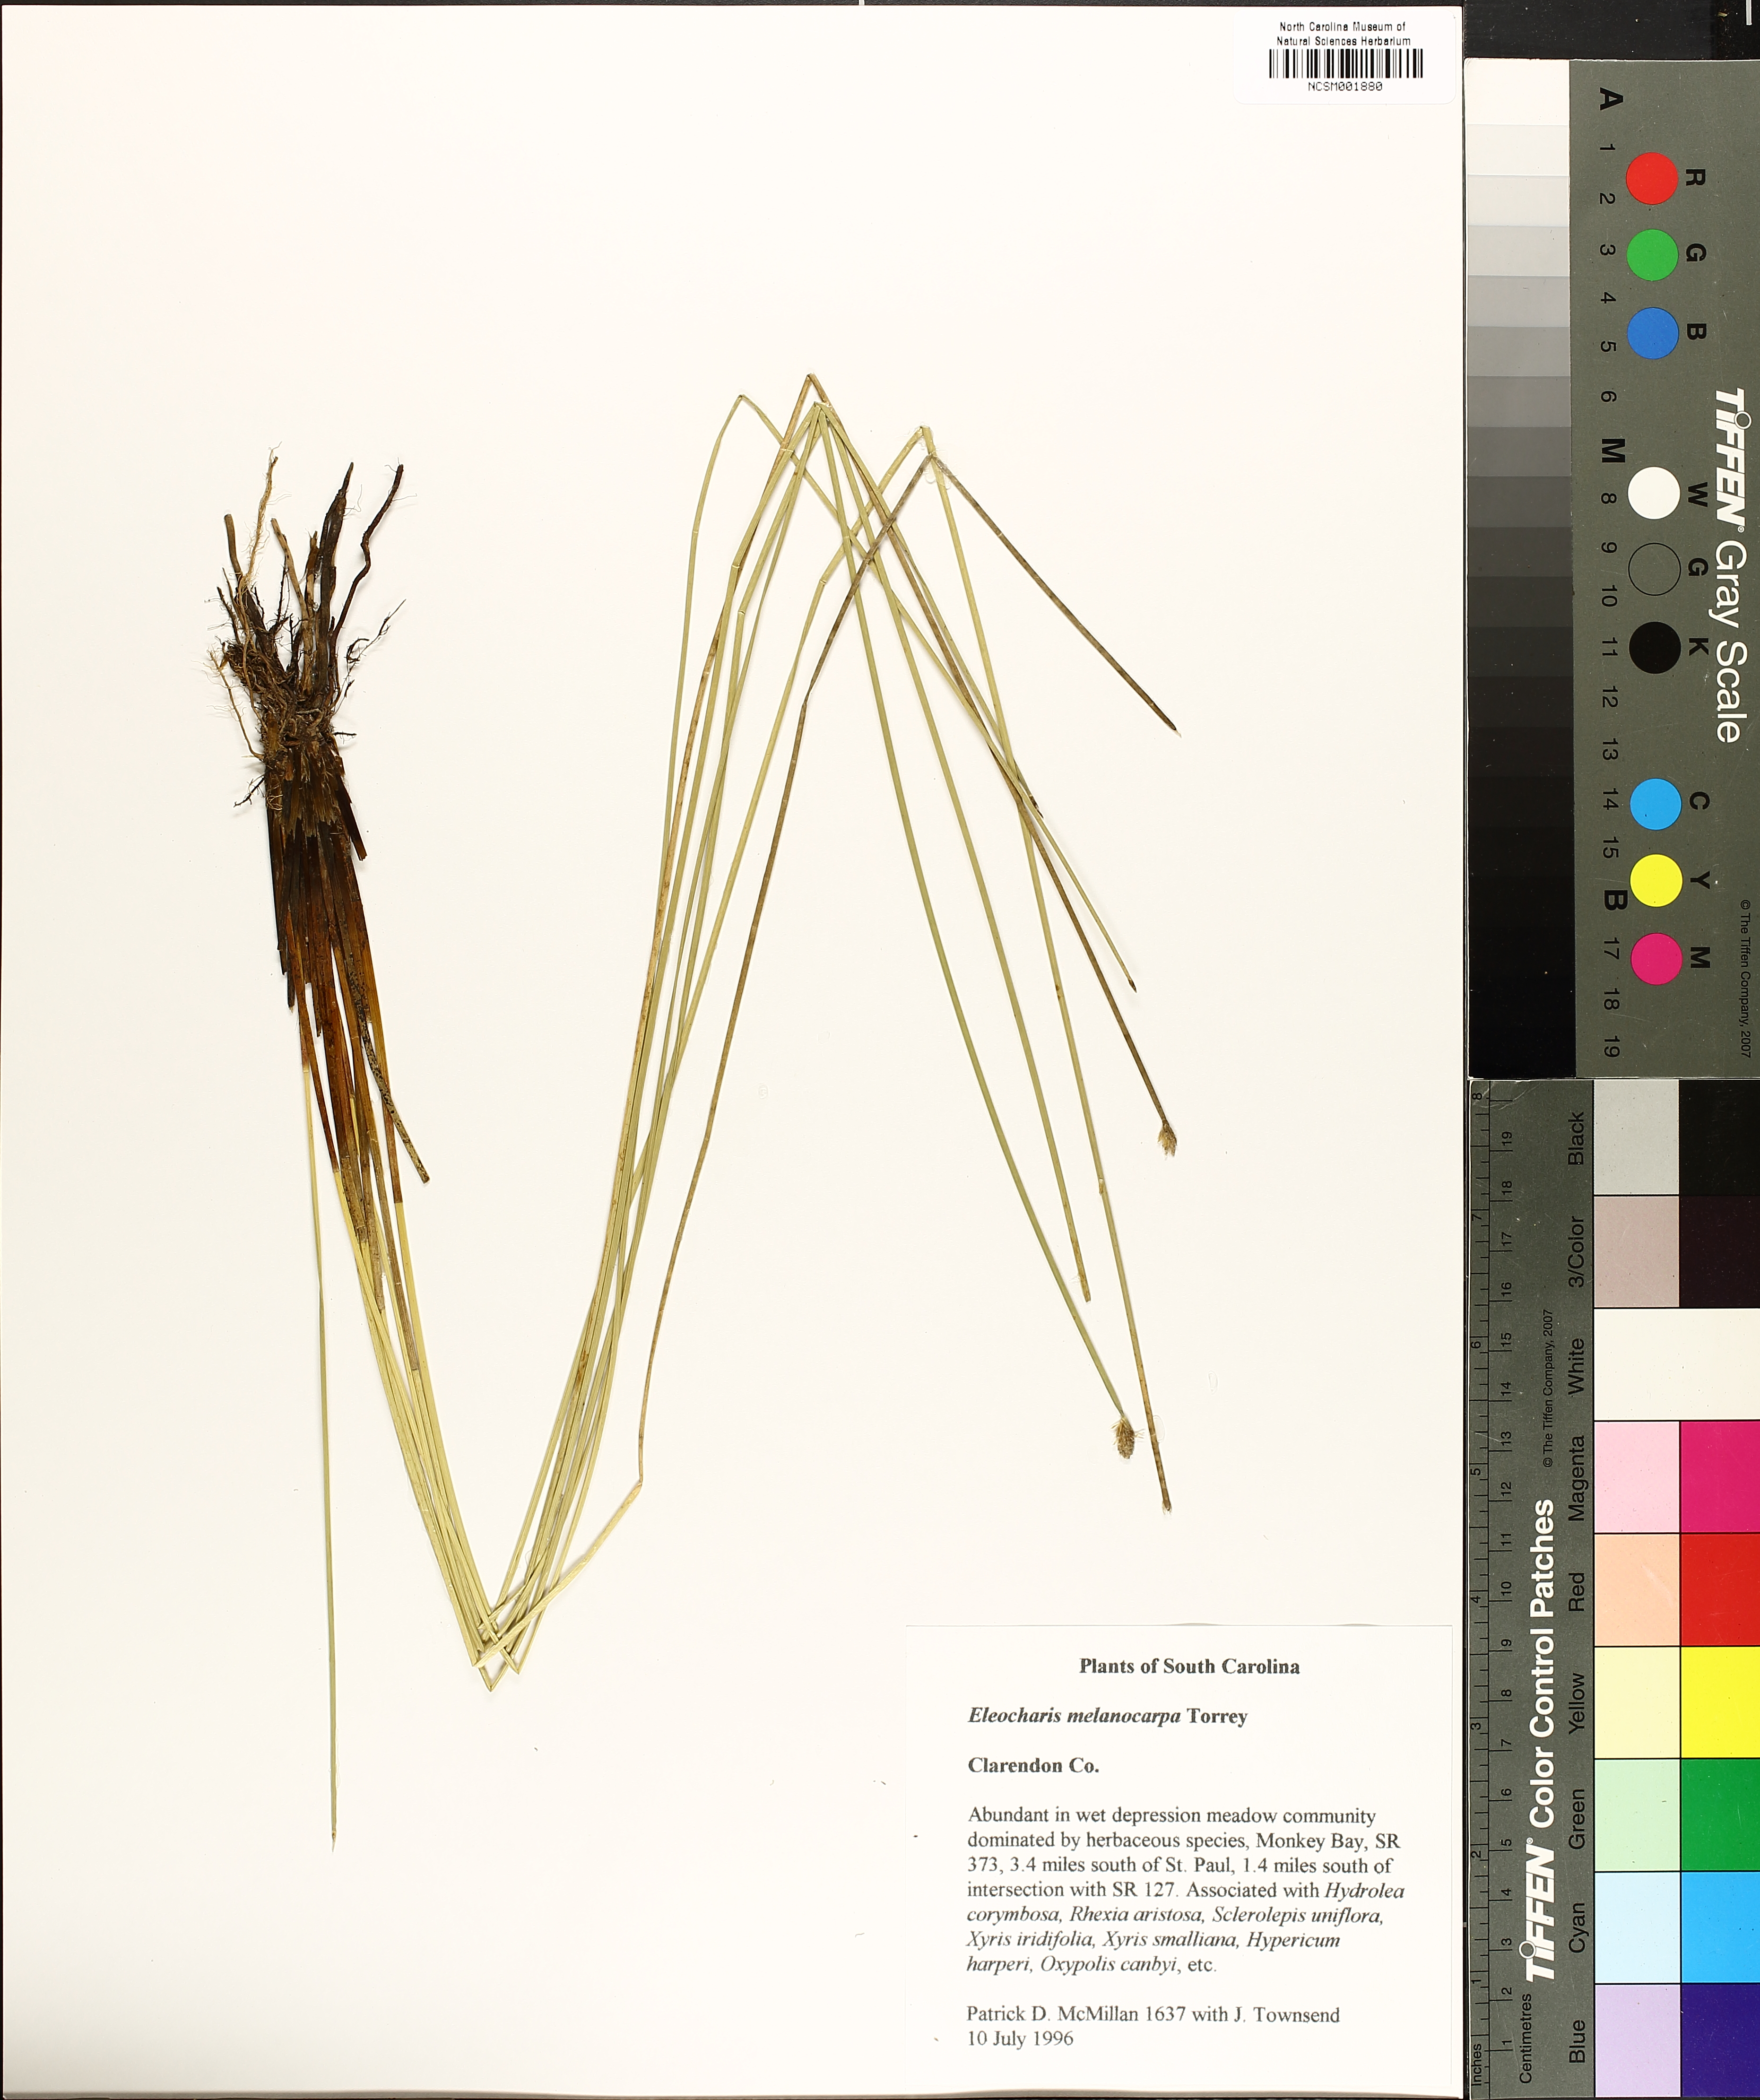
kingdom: Plantae
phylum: Tracheophyta
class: Liliopsida
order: Poales
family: Cyperaceae
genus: Eleocharis
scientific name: Eleocharis melanocarpa
